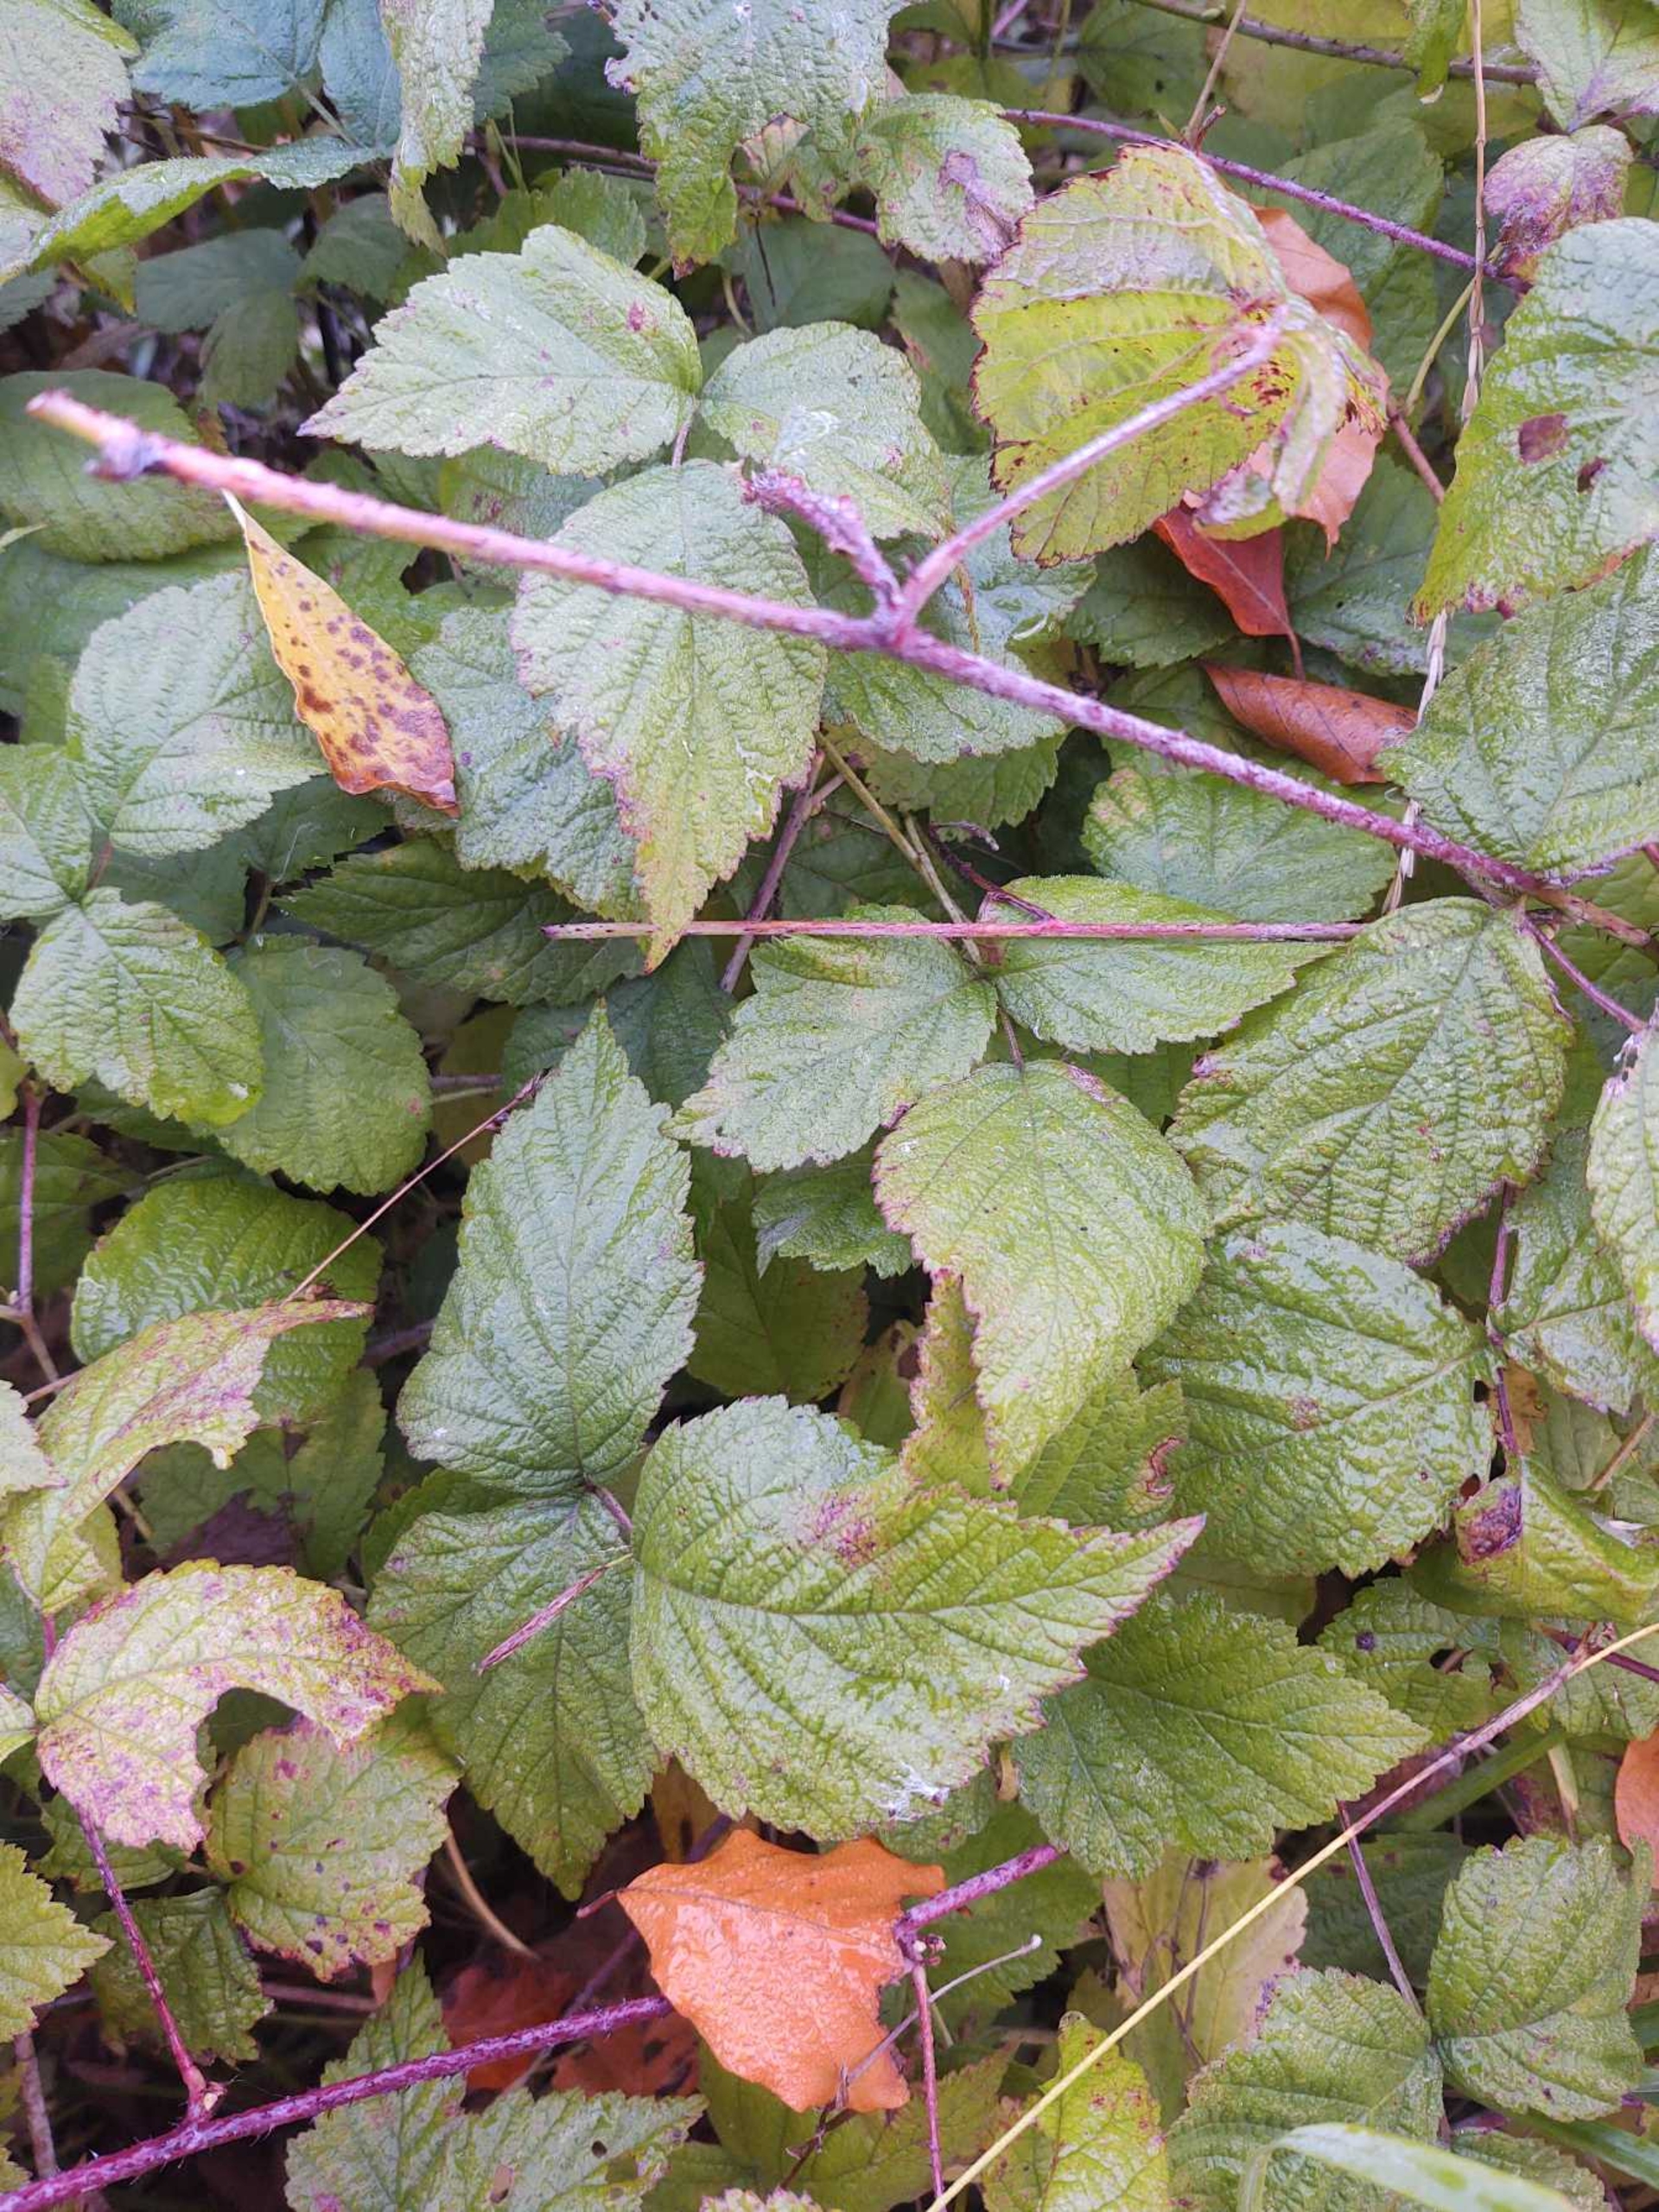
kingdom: Plantae
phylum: Tracheophyta
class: Magnoliopsida
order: Rosales
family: Rosaceae
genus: Rubus
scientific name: Rubus caesius
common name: Korbær
